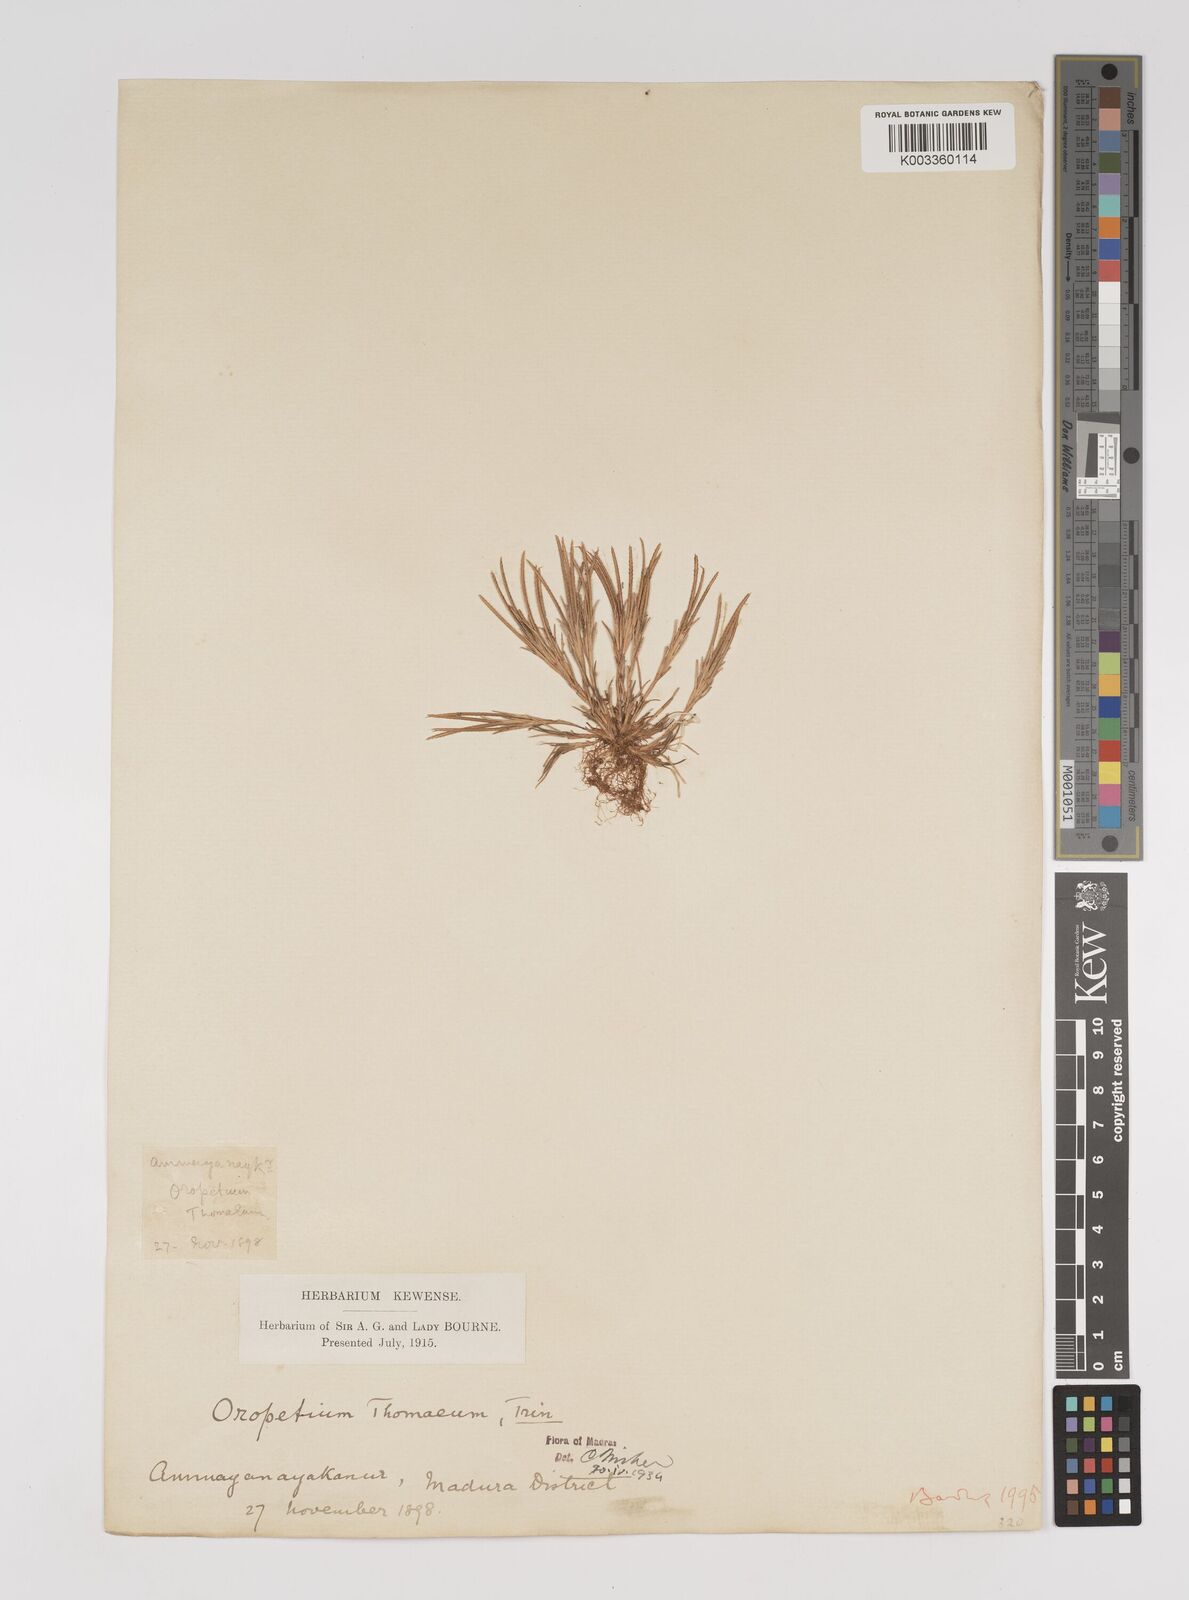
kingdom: Plantae
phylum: Tracheophyta
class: Liliopsida
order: Poales
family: Poaceae
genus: Oropetium
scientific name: Oropetium thomaeum
